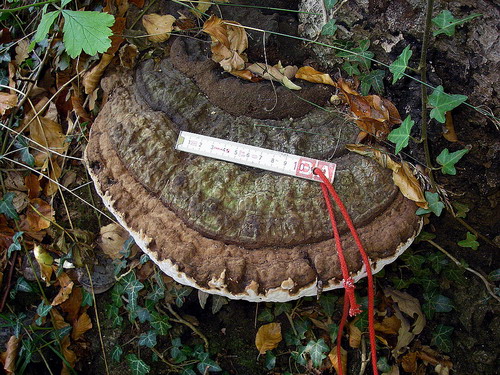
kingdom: Fungi
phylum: Basidiomycota
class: Agaricomycetes
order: Polyporales
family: Polyporaceae
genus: Ganoderma
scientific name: Ganoderma applanatum
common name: flad lakporesvamp
